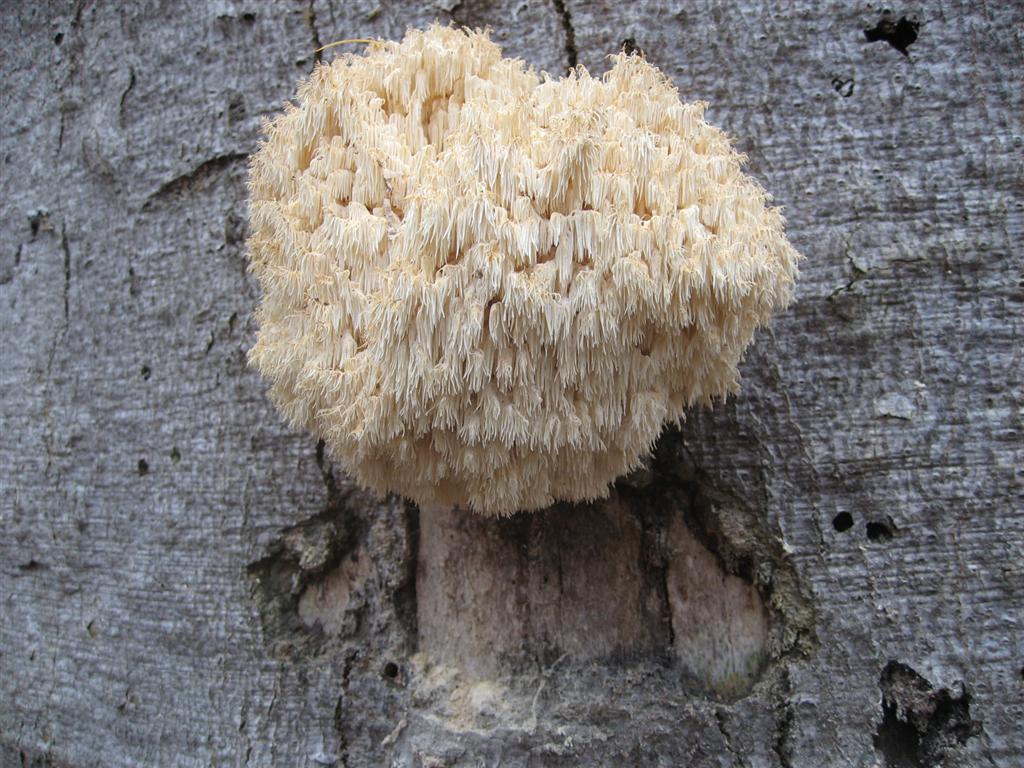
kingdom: Fungi
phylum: Basidiomycota
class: Agaricomycetes
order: Russulales
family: Hericiaceae
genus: Hericium
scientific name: Hericium coralloides
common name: koralpigsvamp
